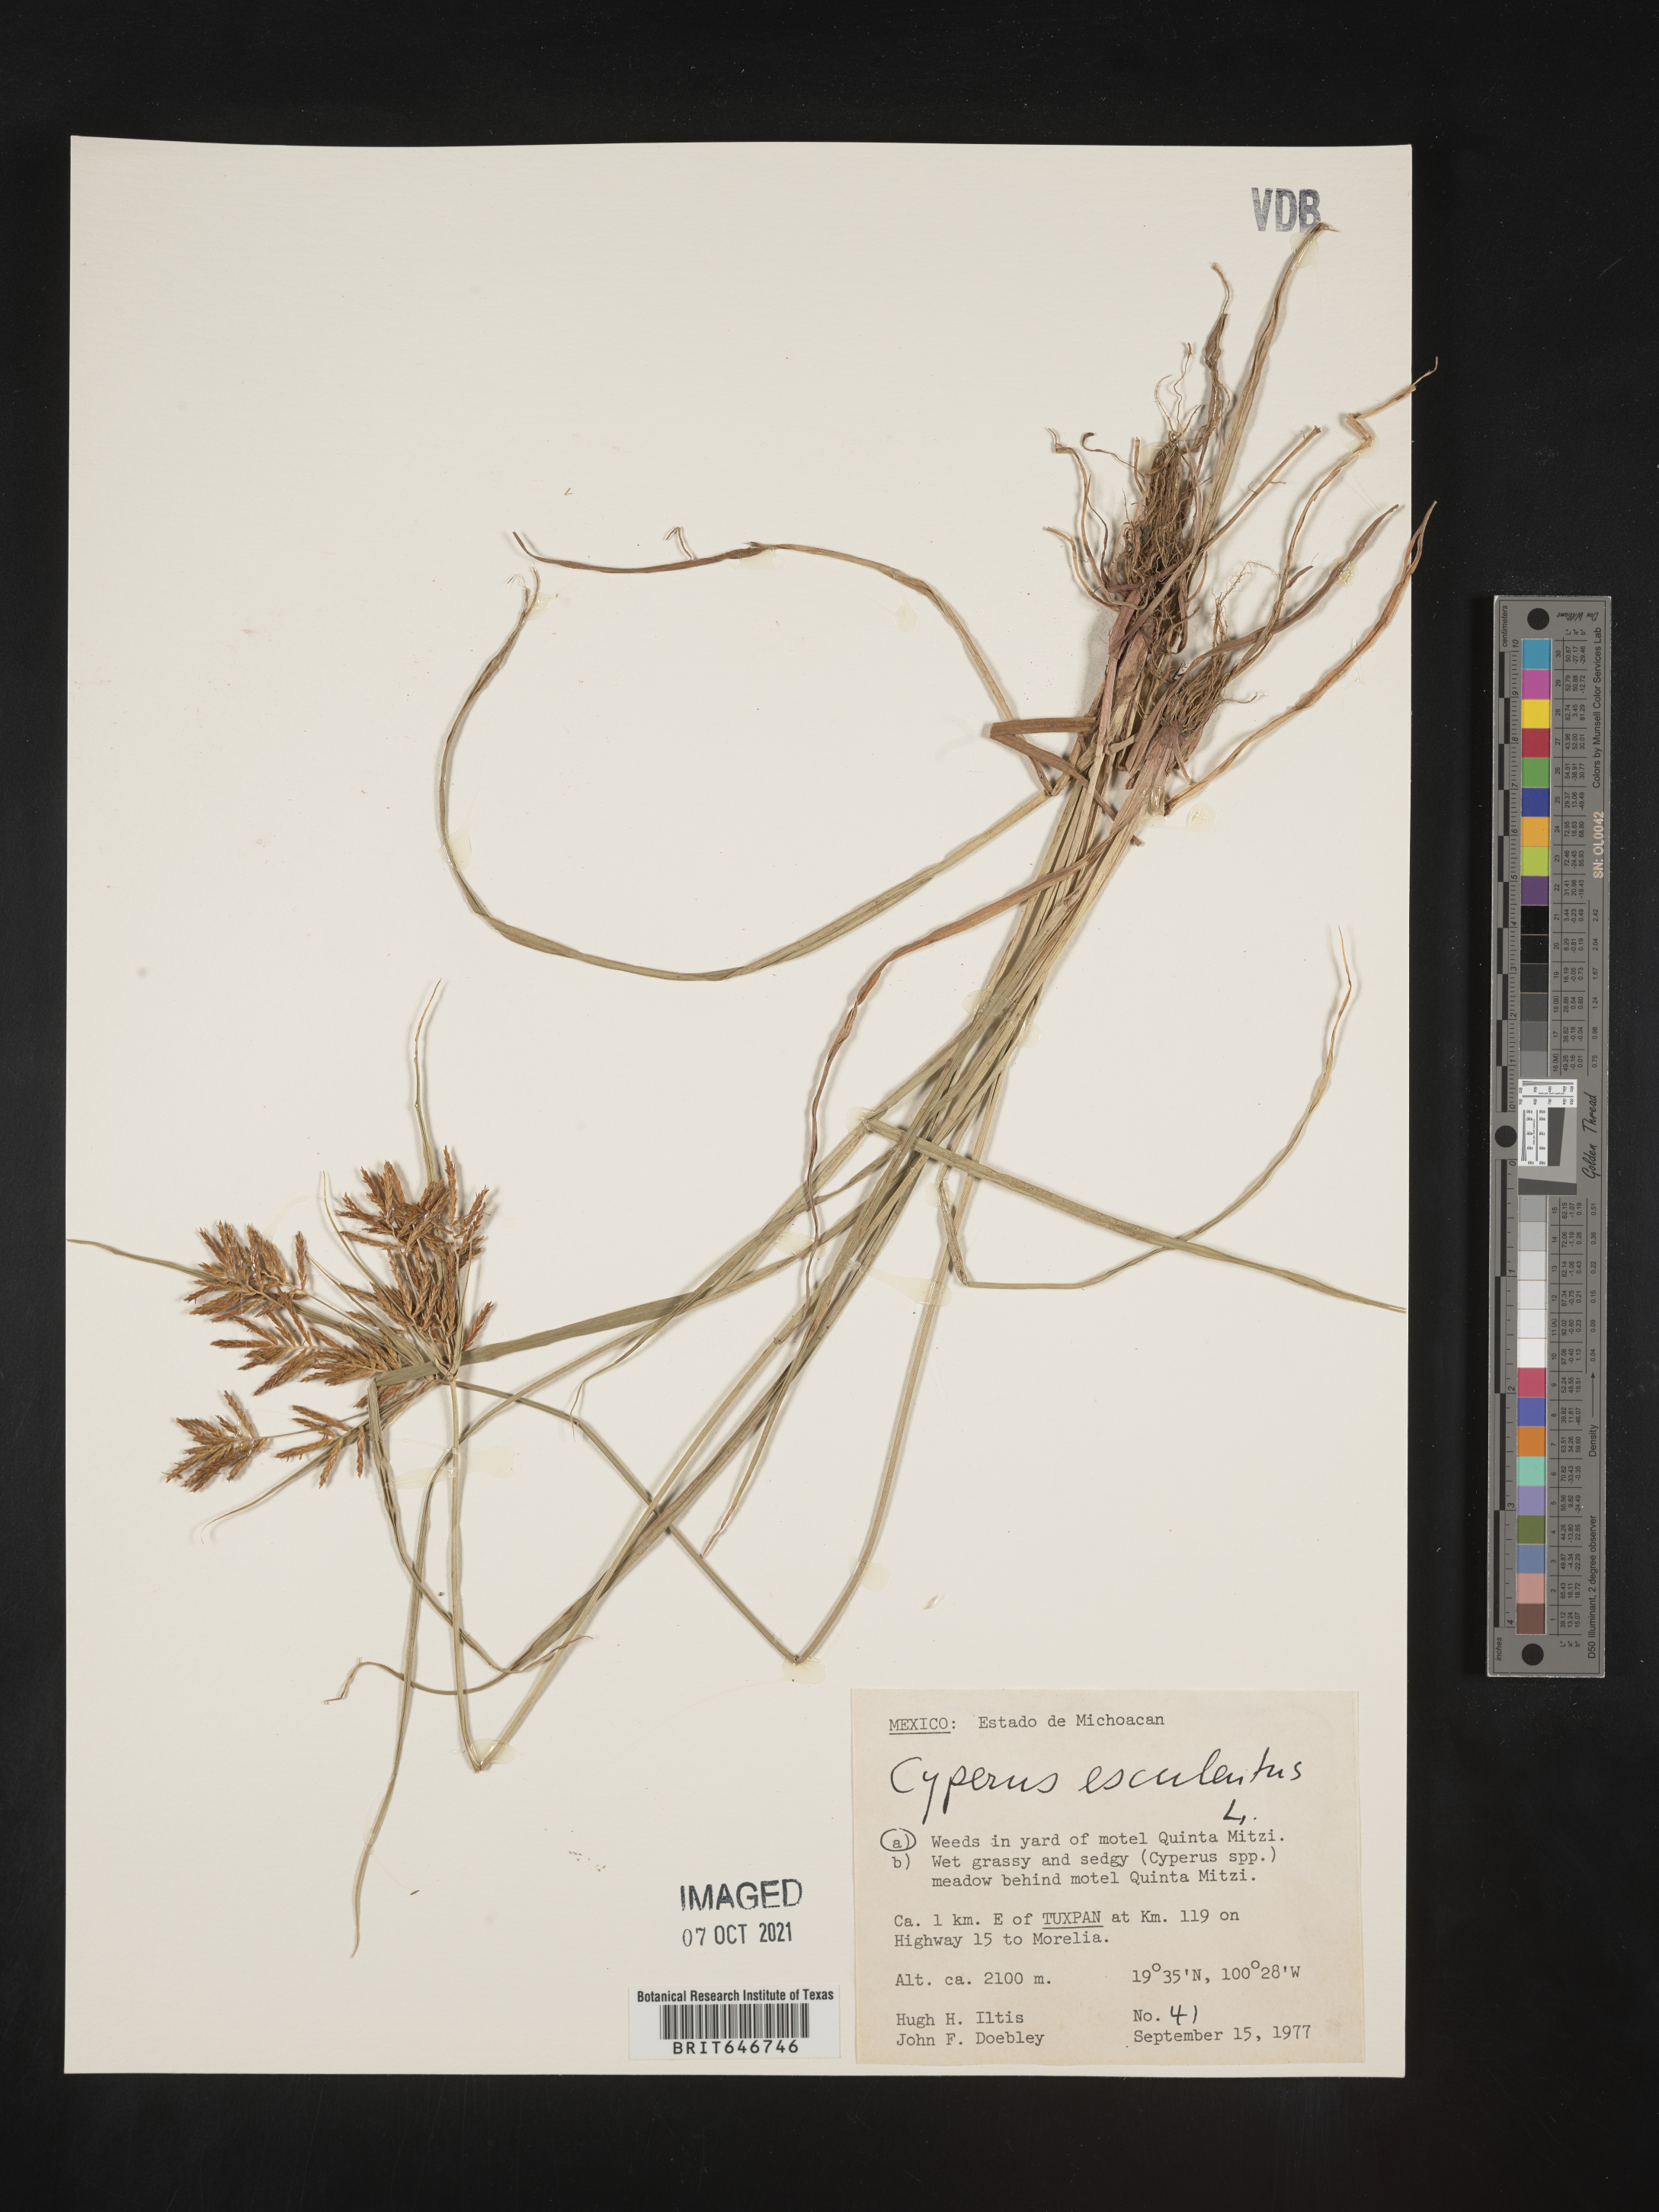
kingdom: Plantae
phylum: Tracheophyta
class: Liliopsida
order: Poales
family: Cyperaceae
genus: Cyperus
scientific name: Cyperus
